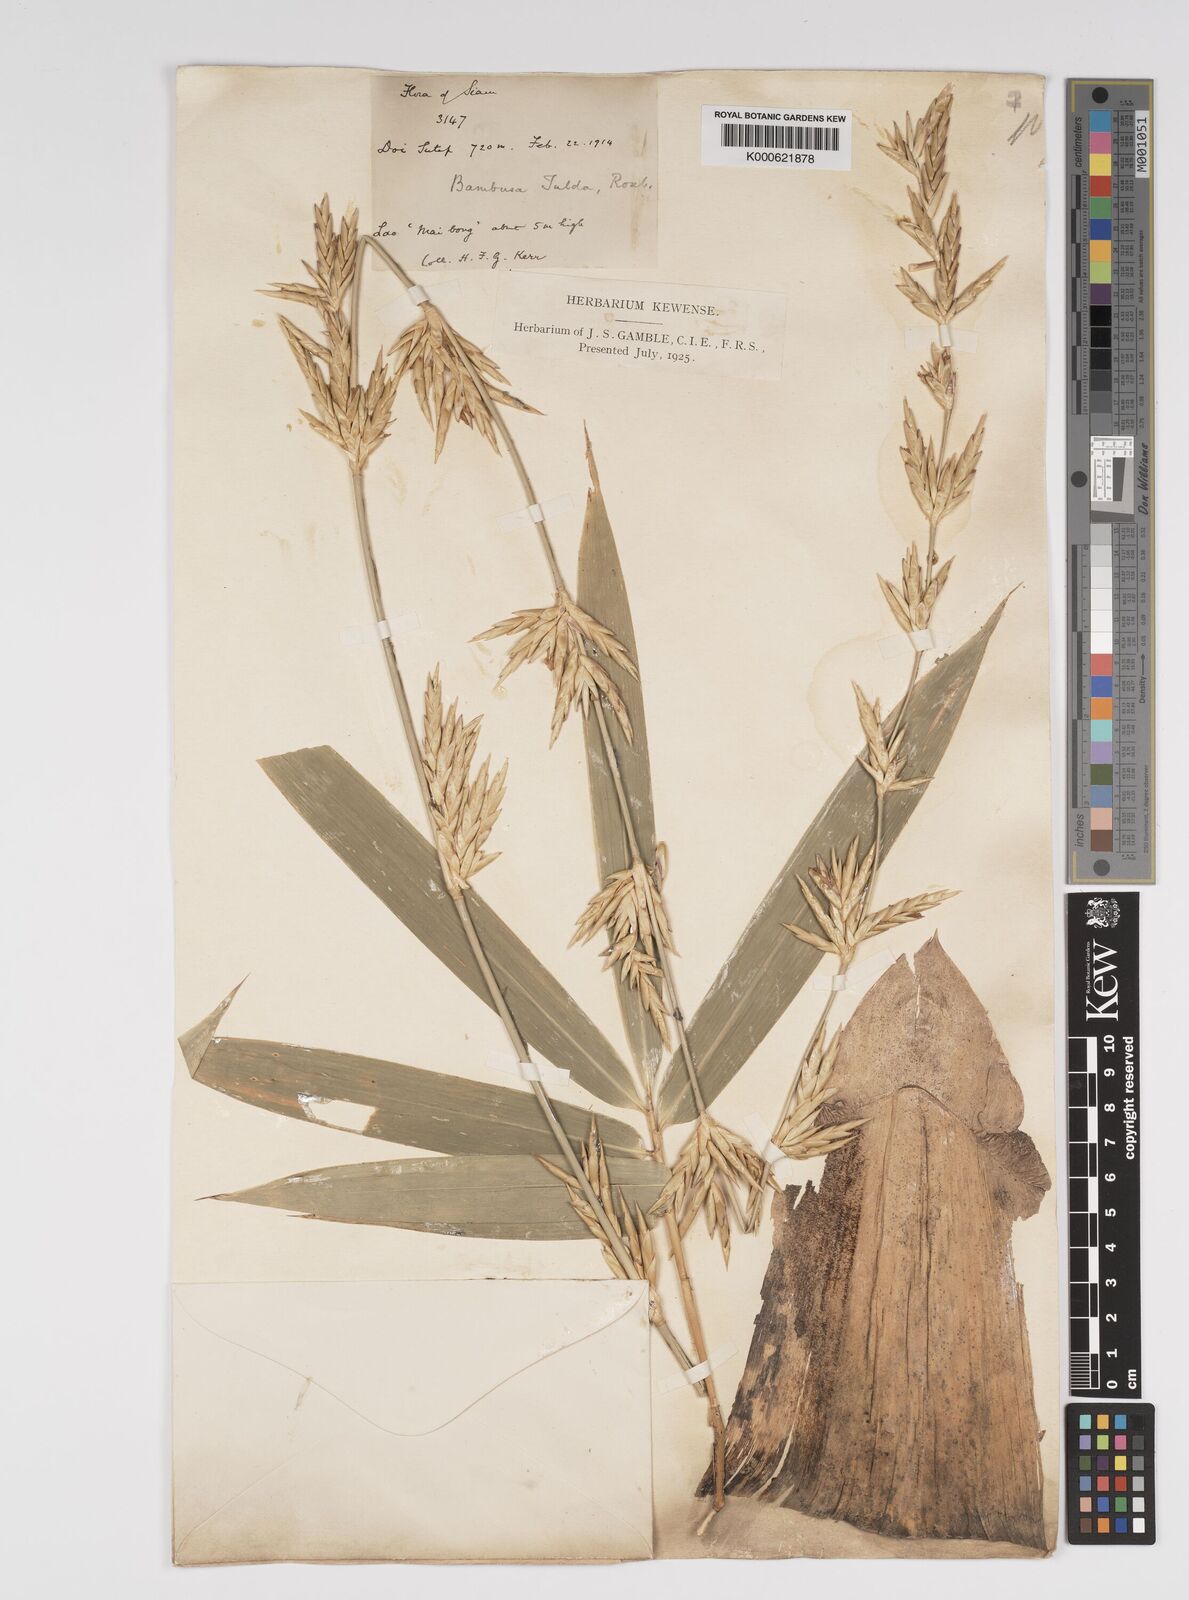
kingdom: Plantae
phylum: Tracheophyta
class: Liliopsida
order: Poales
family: Poaceae
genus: Bambusa
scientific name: Bambusa tulda
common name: Bengal bamboo
